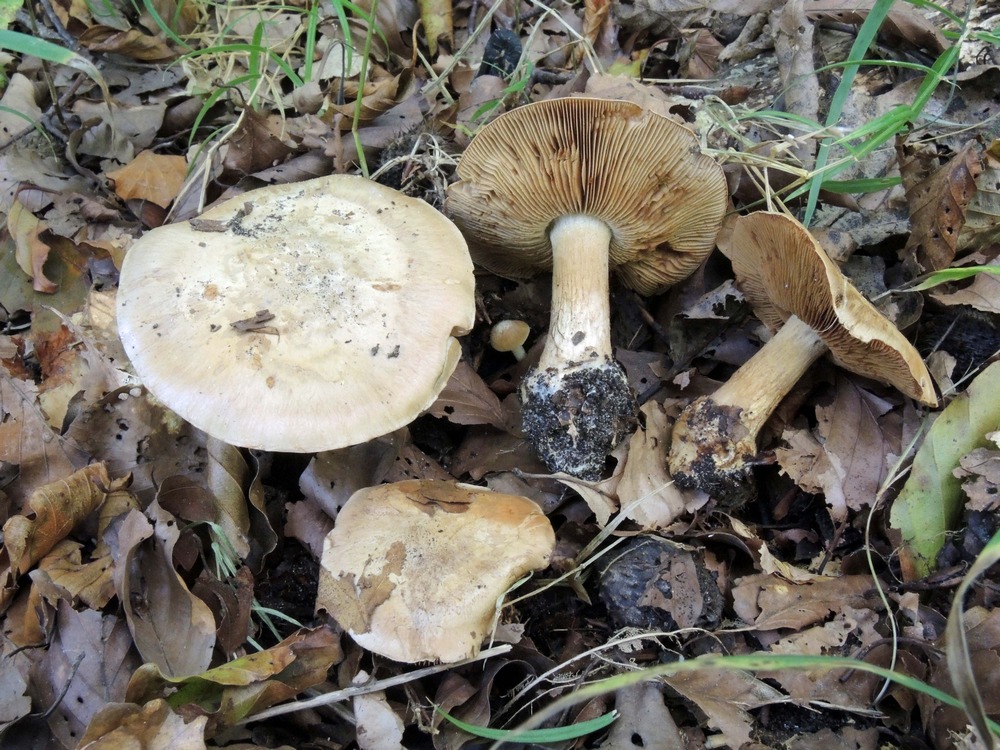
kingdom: Fungi
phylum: Basidiomycota
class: Agaricomycetes
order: Agaricales
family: Cortinariaceae
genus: Phlegmacium
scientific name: Phlegmacium luhmannii
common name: musegrå slørhat
